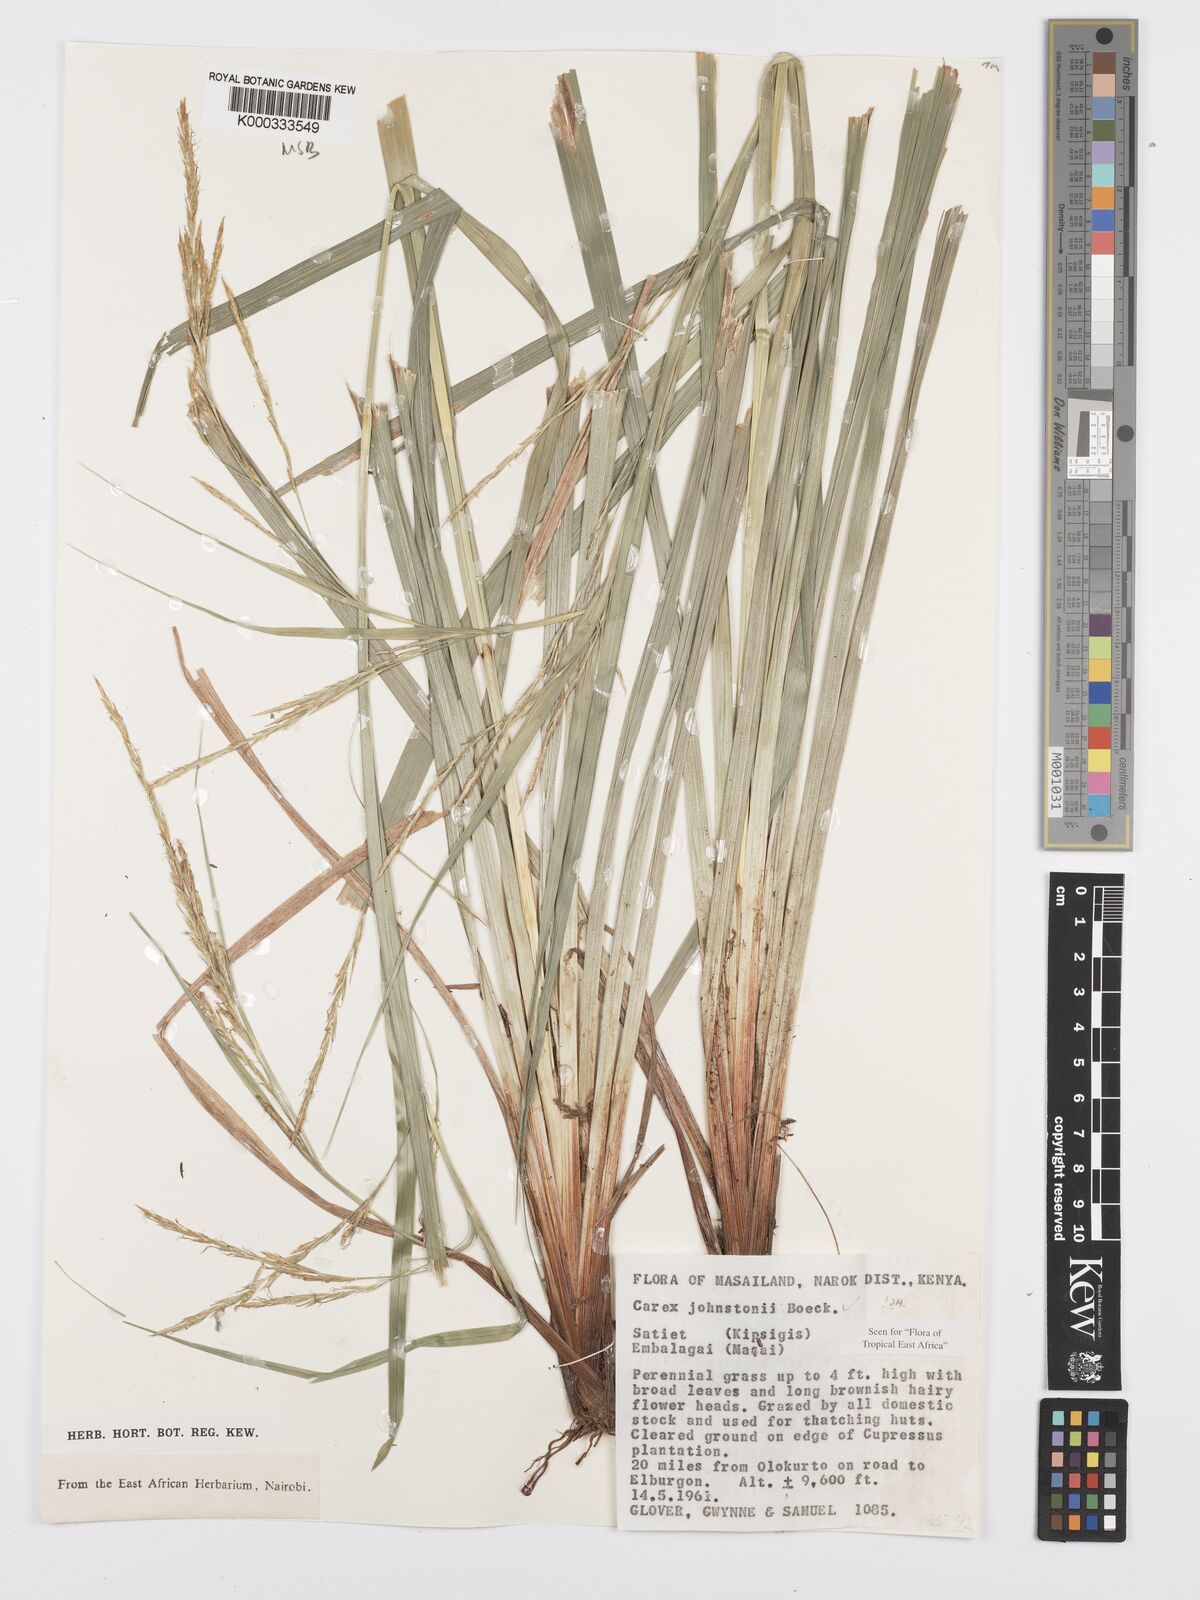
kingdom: Plantae
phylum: Tracheophyta
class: Liliopsida
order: Poales
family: Cyperaceae
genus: Carex
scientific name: Carex johnstonii
